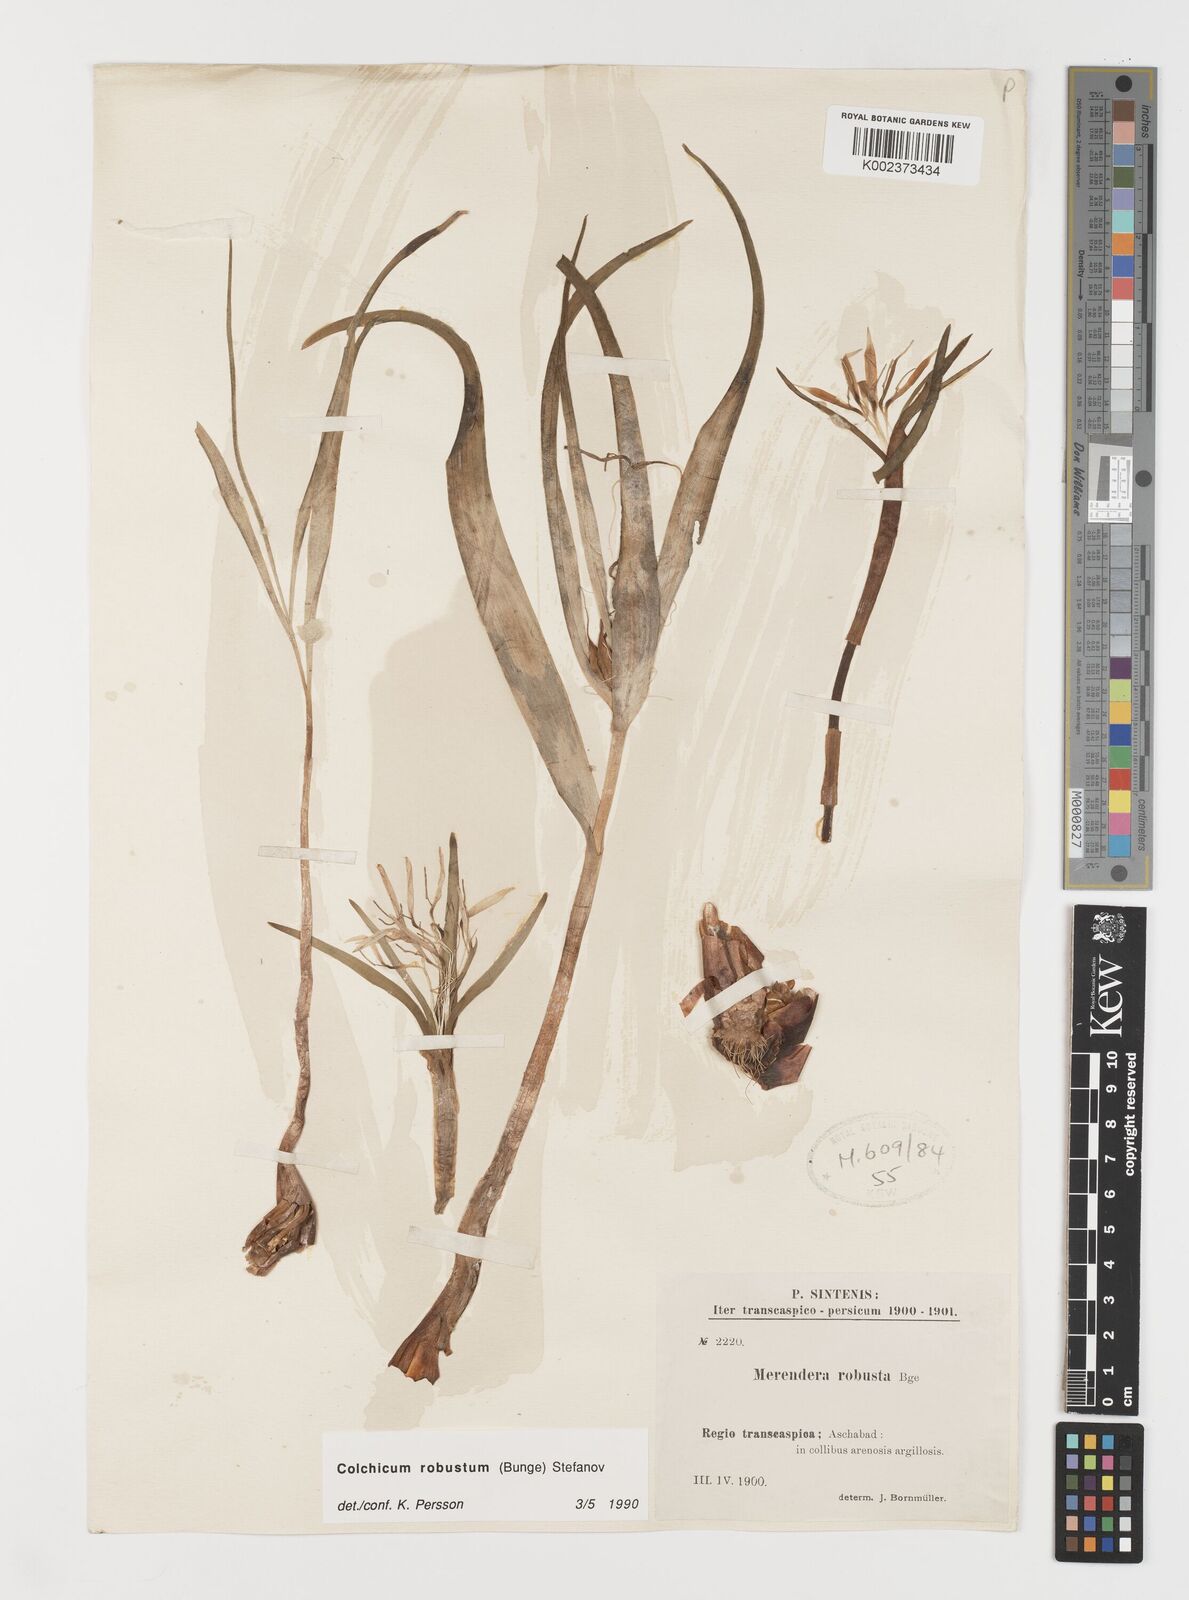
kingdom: Plantae
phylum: Tracheophyta
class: Liliopsida
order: Liliales
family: Colchicaceae
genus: Colchicum
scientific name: Colchicum robustum
